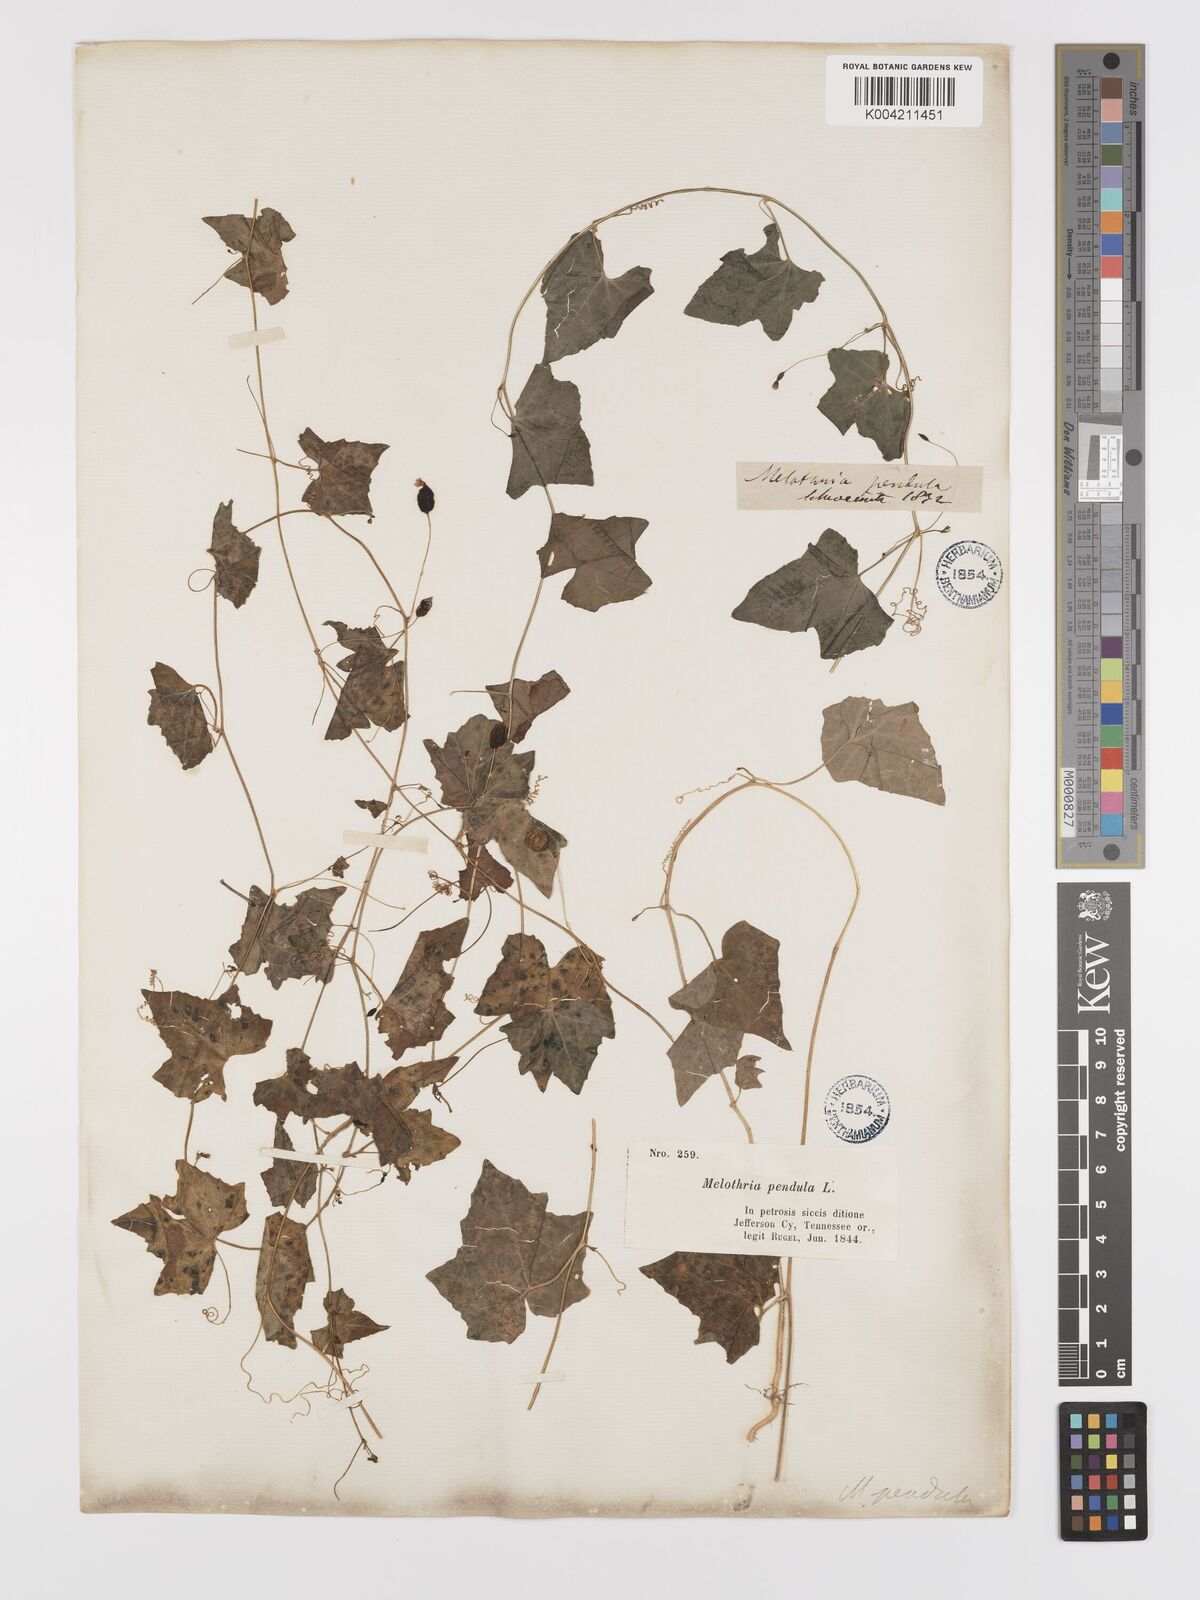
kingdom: Plantae
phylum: Tracheophyta
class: Magnoliopsida
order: Cucurbitales
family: Cucurbitaceae
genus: Melothria
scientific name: Melothria pendula
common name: Creeping-cucumber
